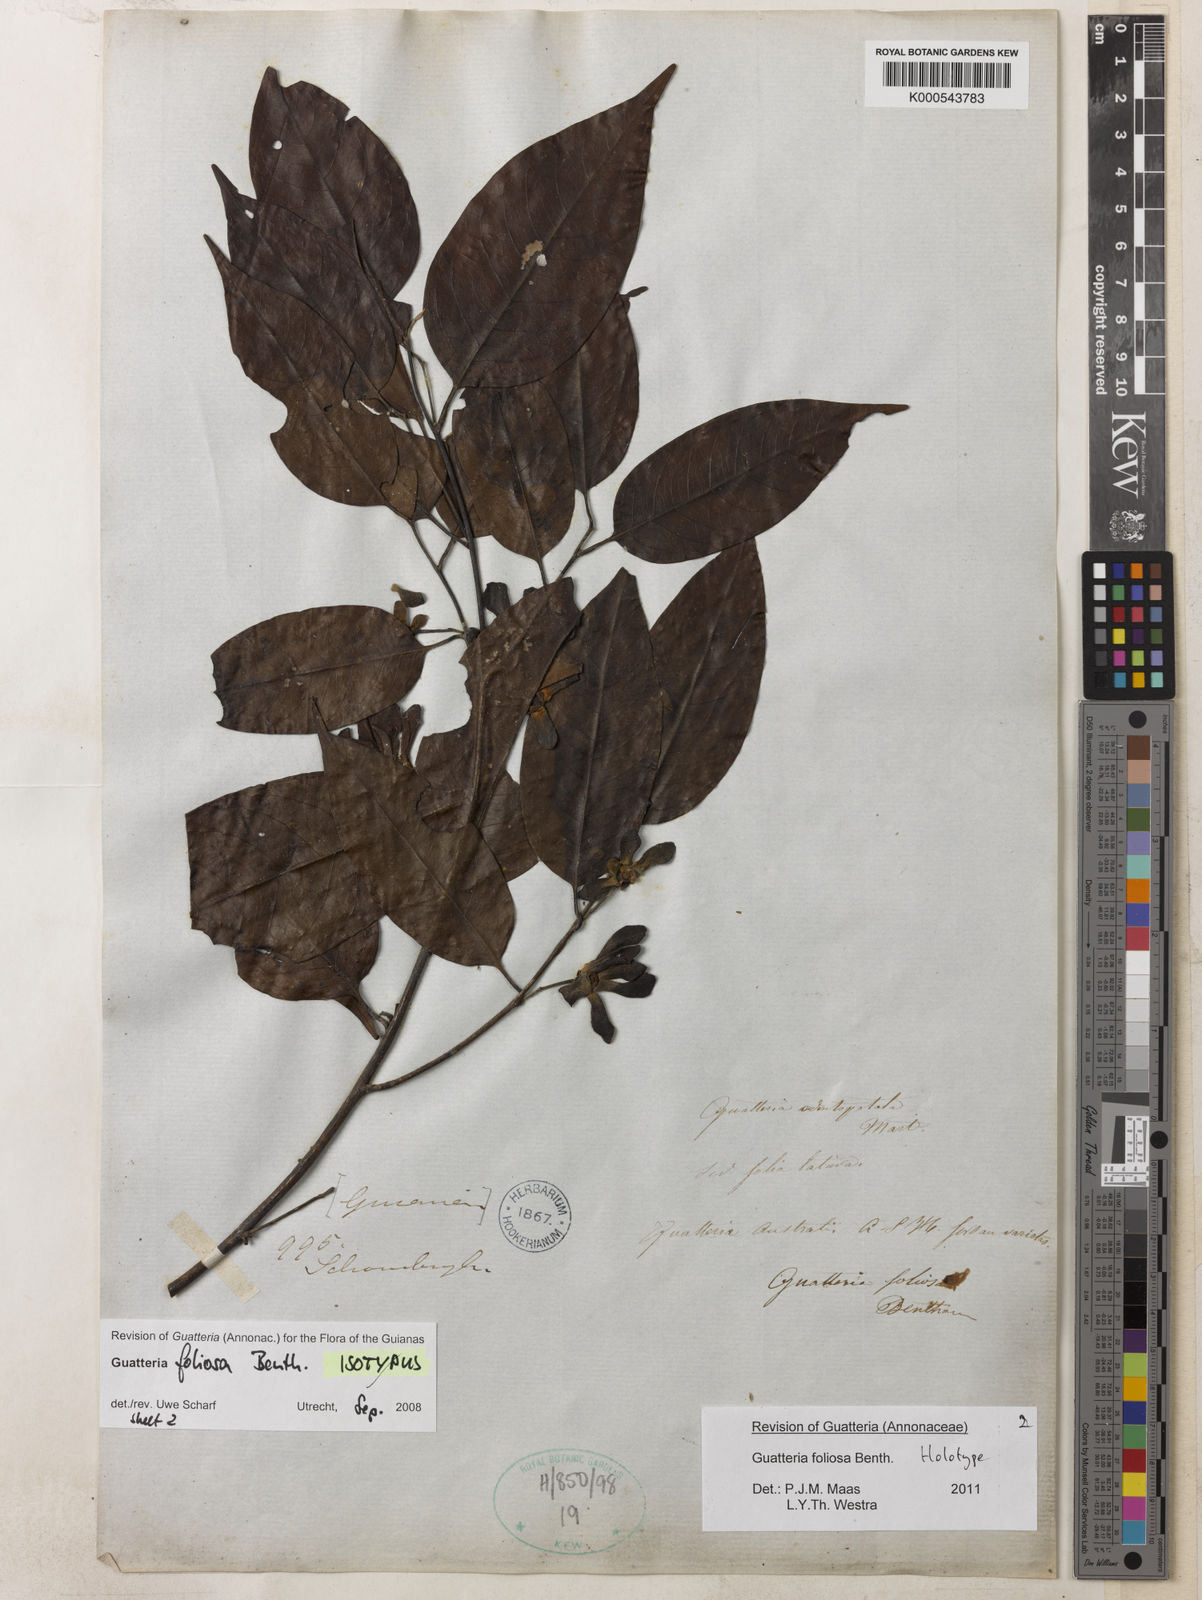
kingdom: Plantae
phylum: Tracheophyta
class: Magnoliopsida
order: Magnoliales
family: Annonaceae
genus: Guatteria
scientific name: Guatteria foliosa
